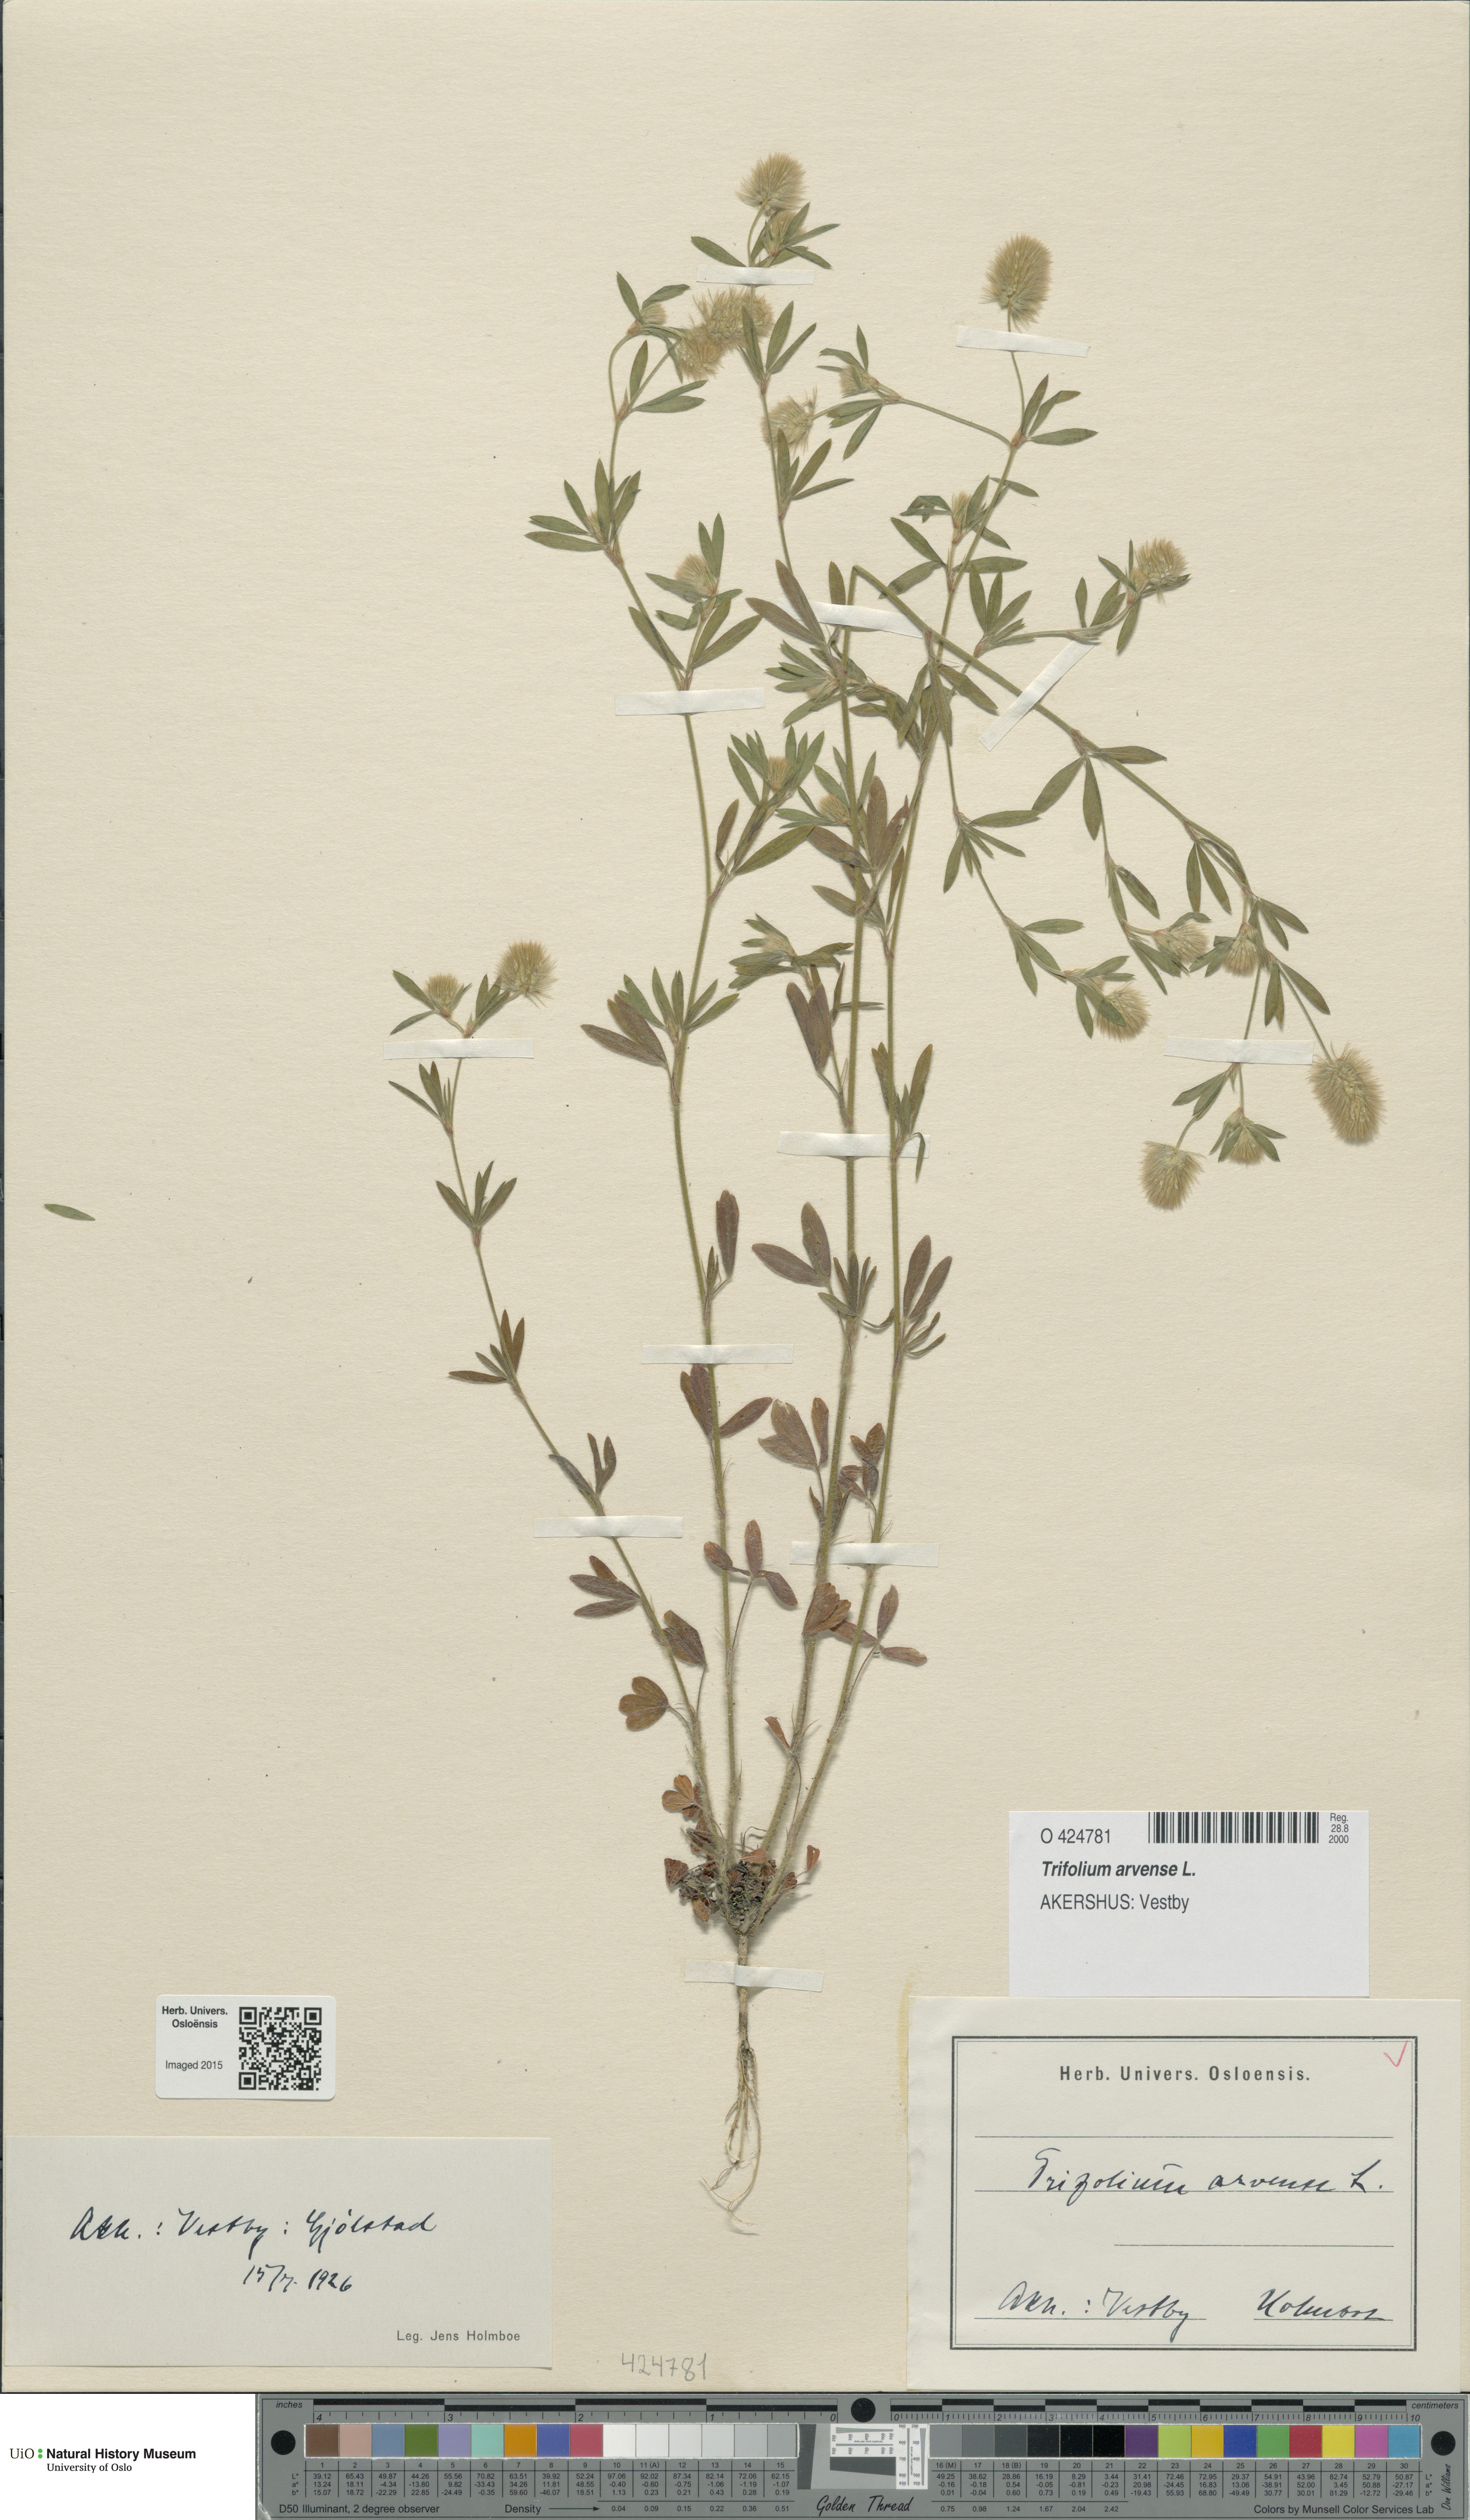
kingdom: Plantae
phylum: Tracheophyta
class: Magnoliopsida
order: Fabales
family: Fabaceae
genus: Trifolium
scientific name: Trifolium arvense
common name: Hare's-foot clover
